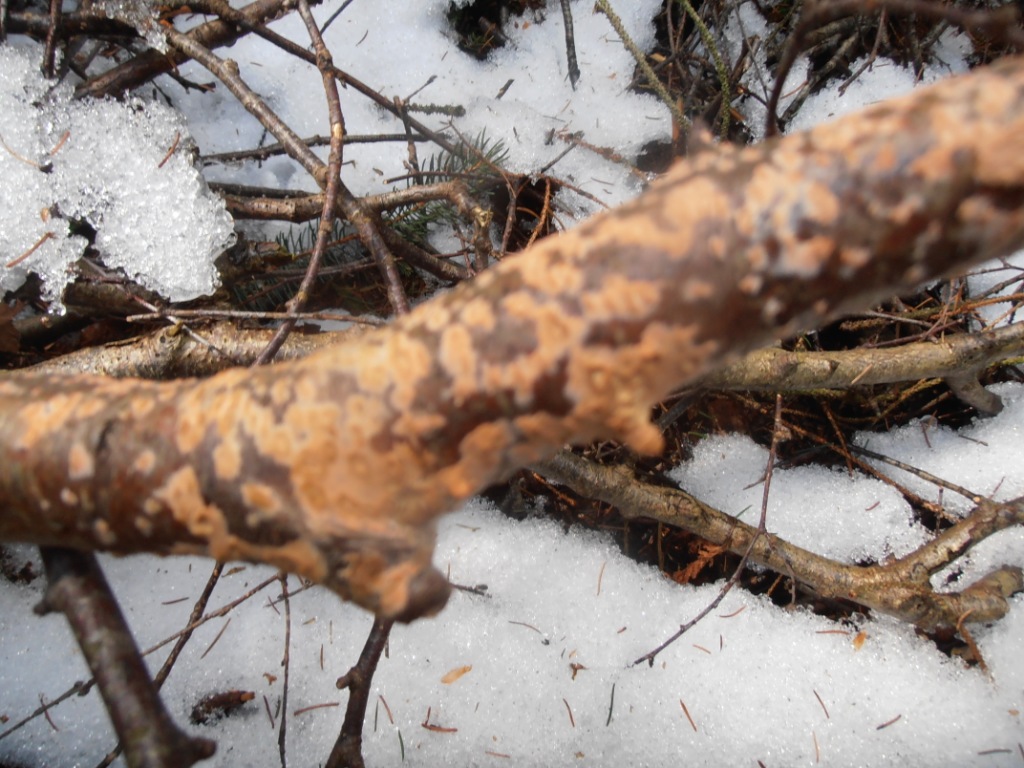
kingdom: Fungi
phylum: Basidiomycota
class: Agaricomycetes
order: Russulales
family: Peniophoraceae
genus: Peniophora
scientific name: Peniophora incarnata
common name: laksefarvet voksskind
